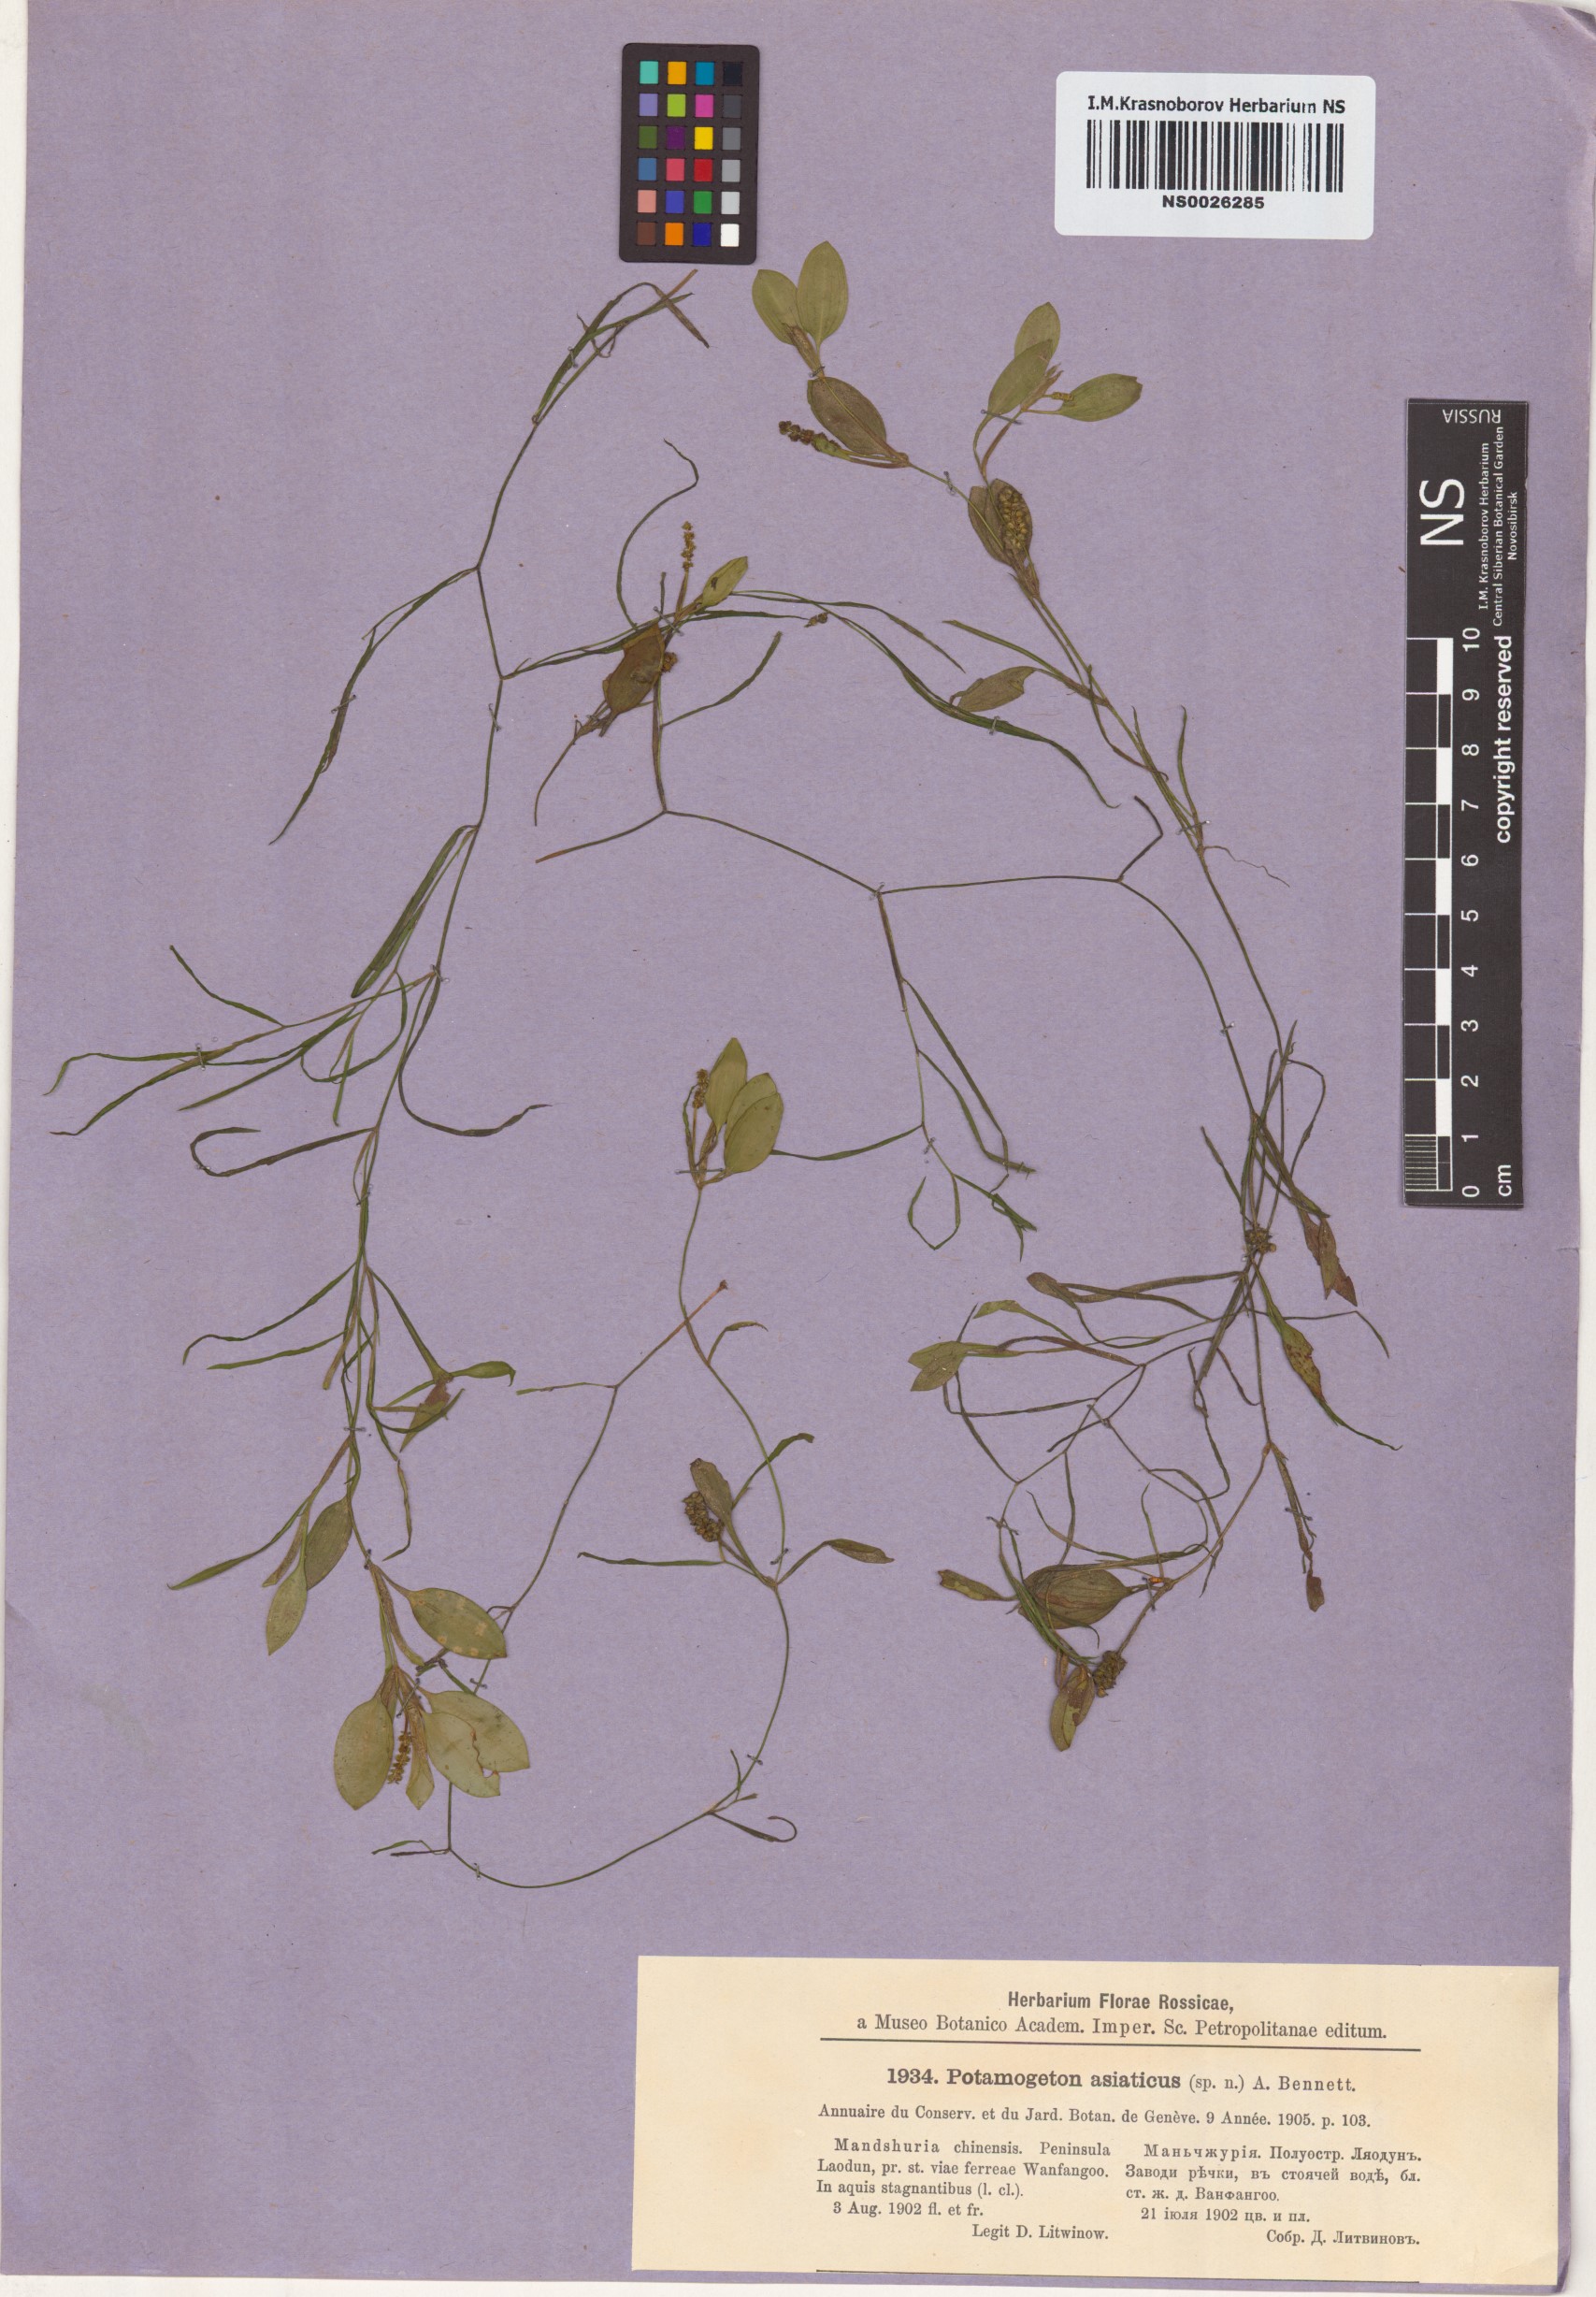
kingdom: Plantae
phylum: Tracheophyta
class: Liliopsida
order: Alismatales
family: Potamogetonaceae
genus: Potamogeton
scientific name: Potamogeton octandrus
